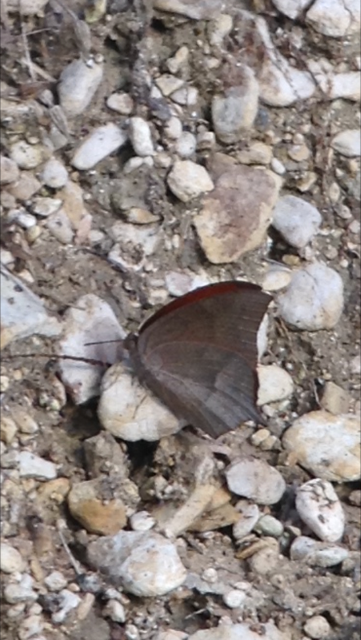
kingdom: Animalia
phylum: Arthropoda
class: Insecta
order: Lepidoptera
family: Nymphalidae
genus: Anaea
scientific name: Anaea andria
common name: Goatweed Leafwing
